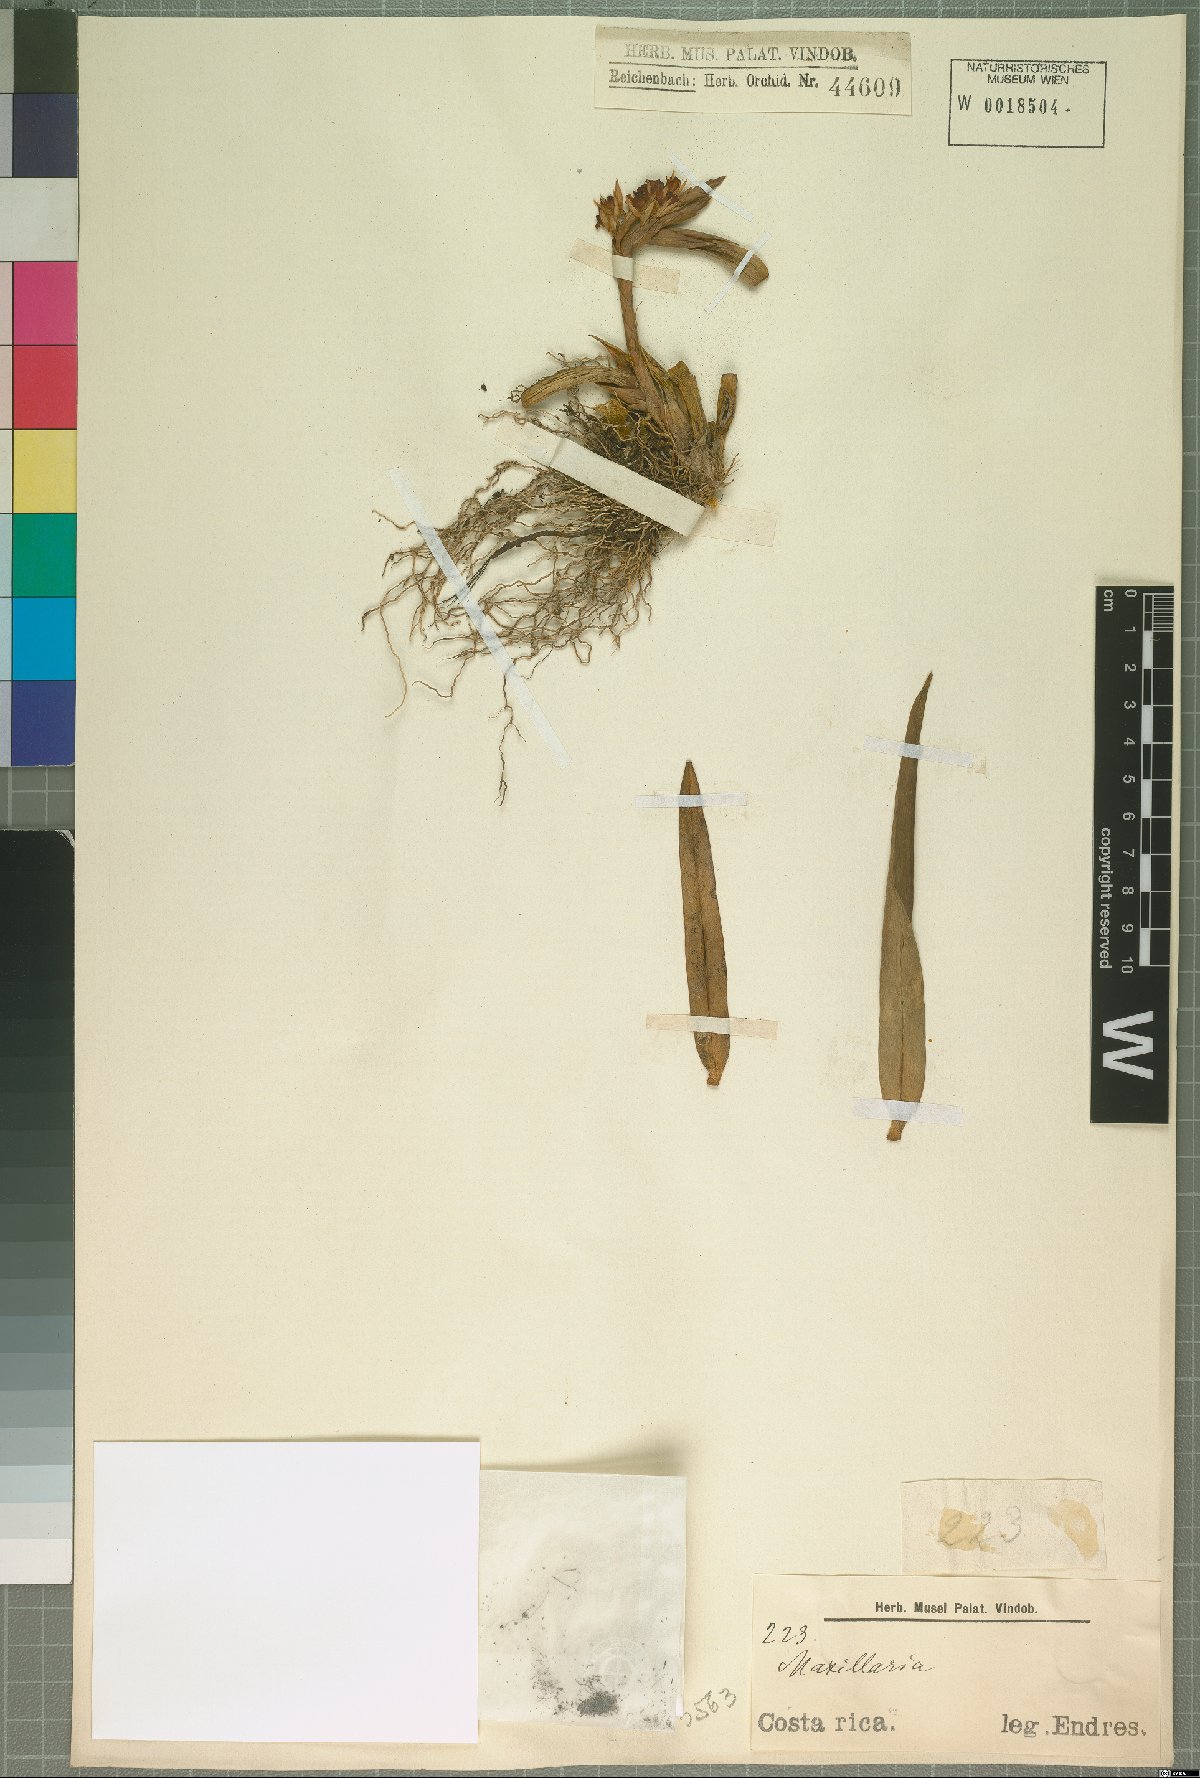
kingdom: Plantae
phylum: Tracheophyta
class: Liliopsida
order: Asparagales
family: Orchidaceae
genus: Maxillaria
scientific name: Maxillaria
